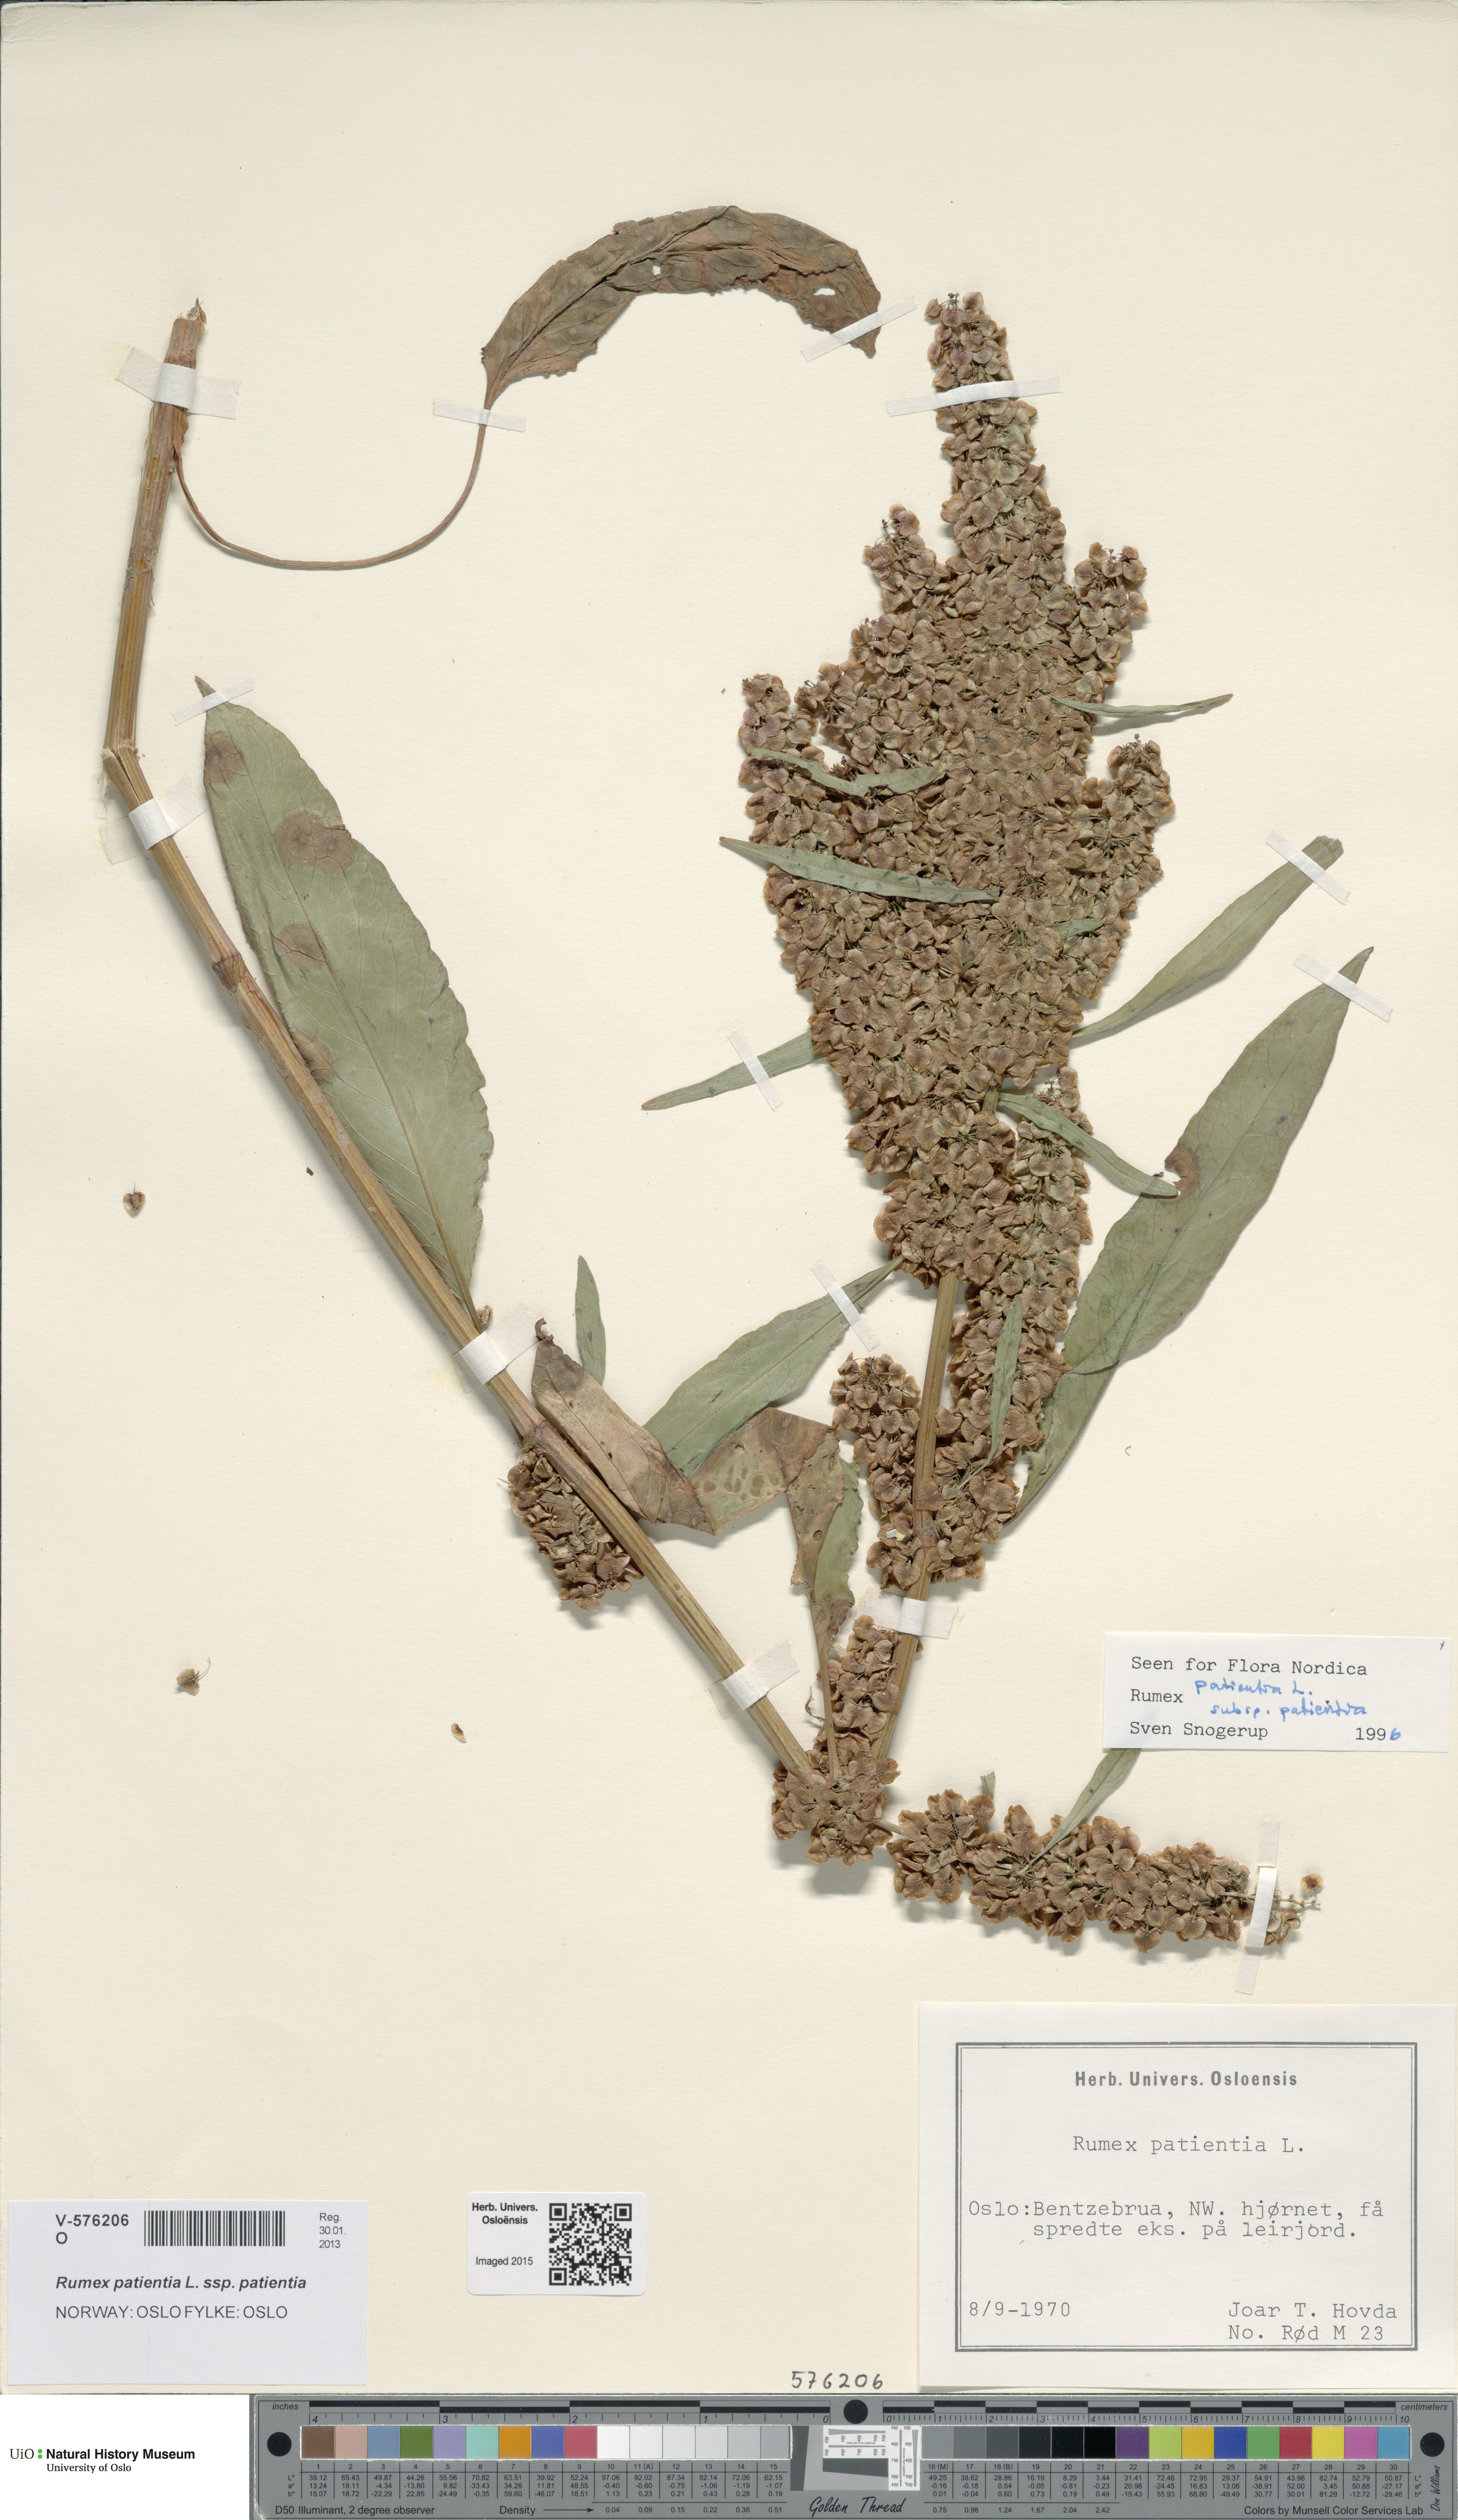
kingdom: Plantae
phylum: Tracheophyta
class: Magnoliopsida
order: Caryophyllales
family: Polygonaceae
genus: Rumex
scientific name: Rumex patientia
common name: Patience dock
